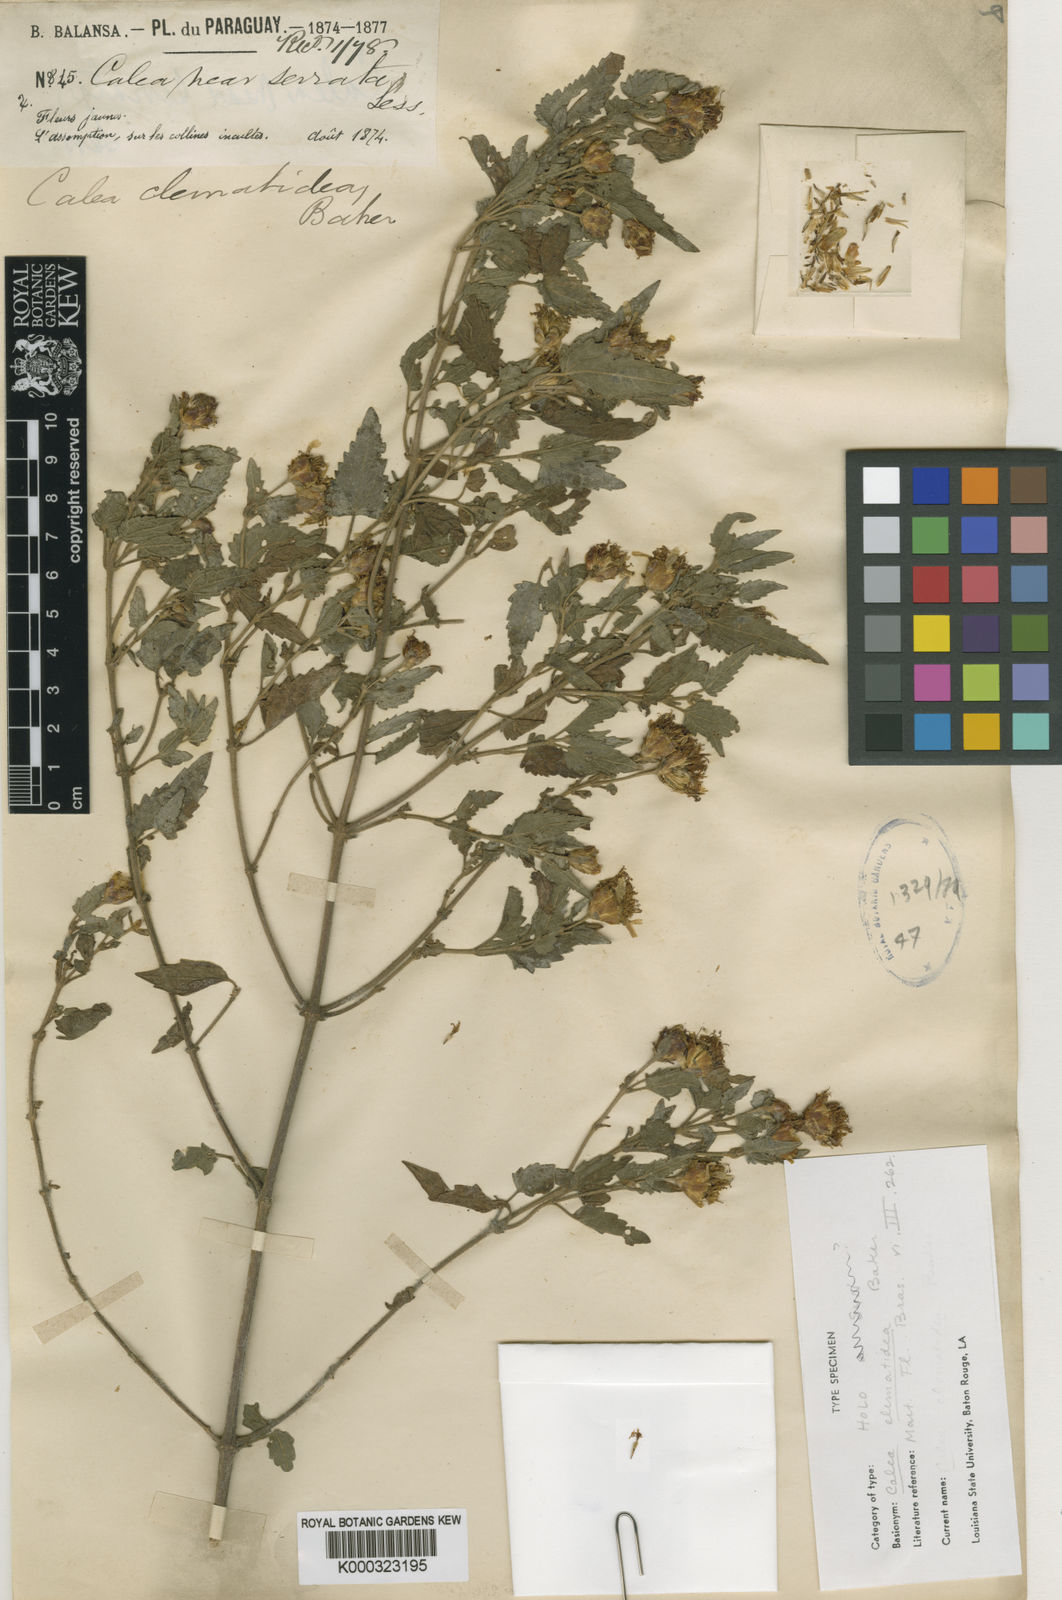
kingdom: Plantae
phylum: Tracheophyta
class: Magnoliopsida
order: Asterales
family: Asteraceae
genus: Calea
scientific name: Calea clematidea
